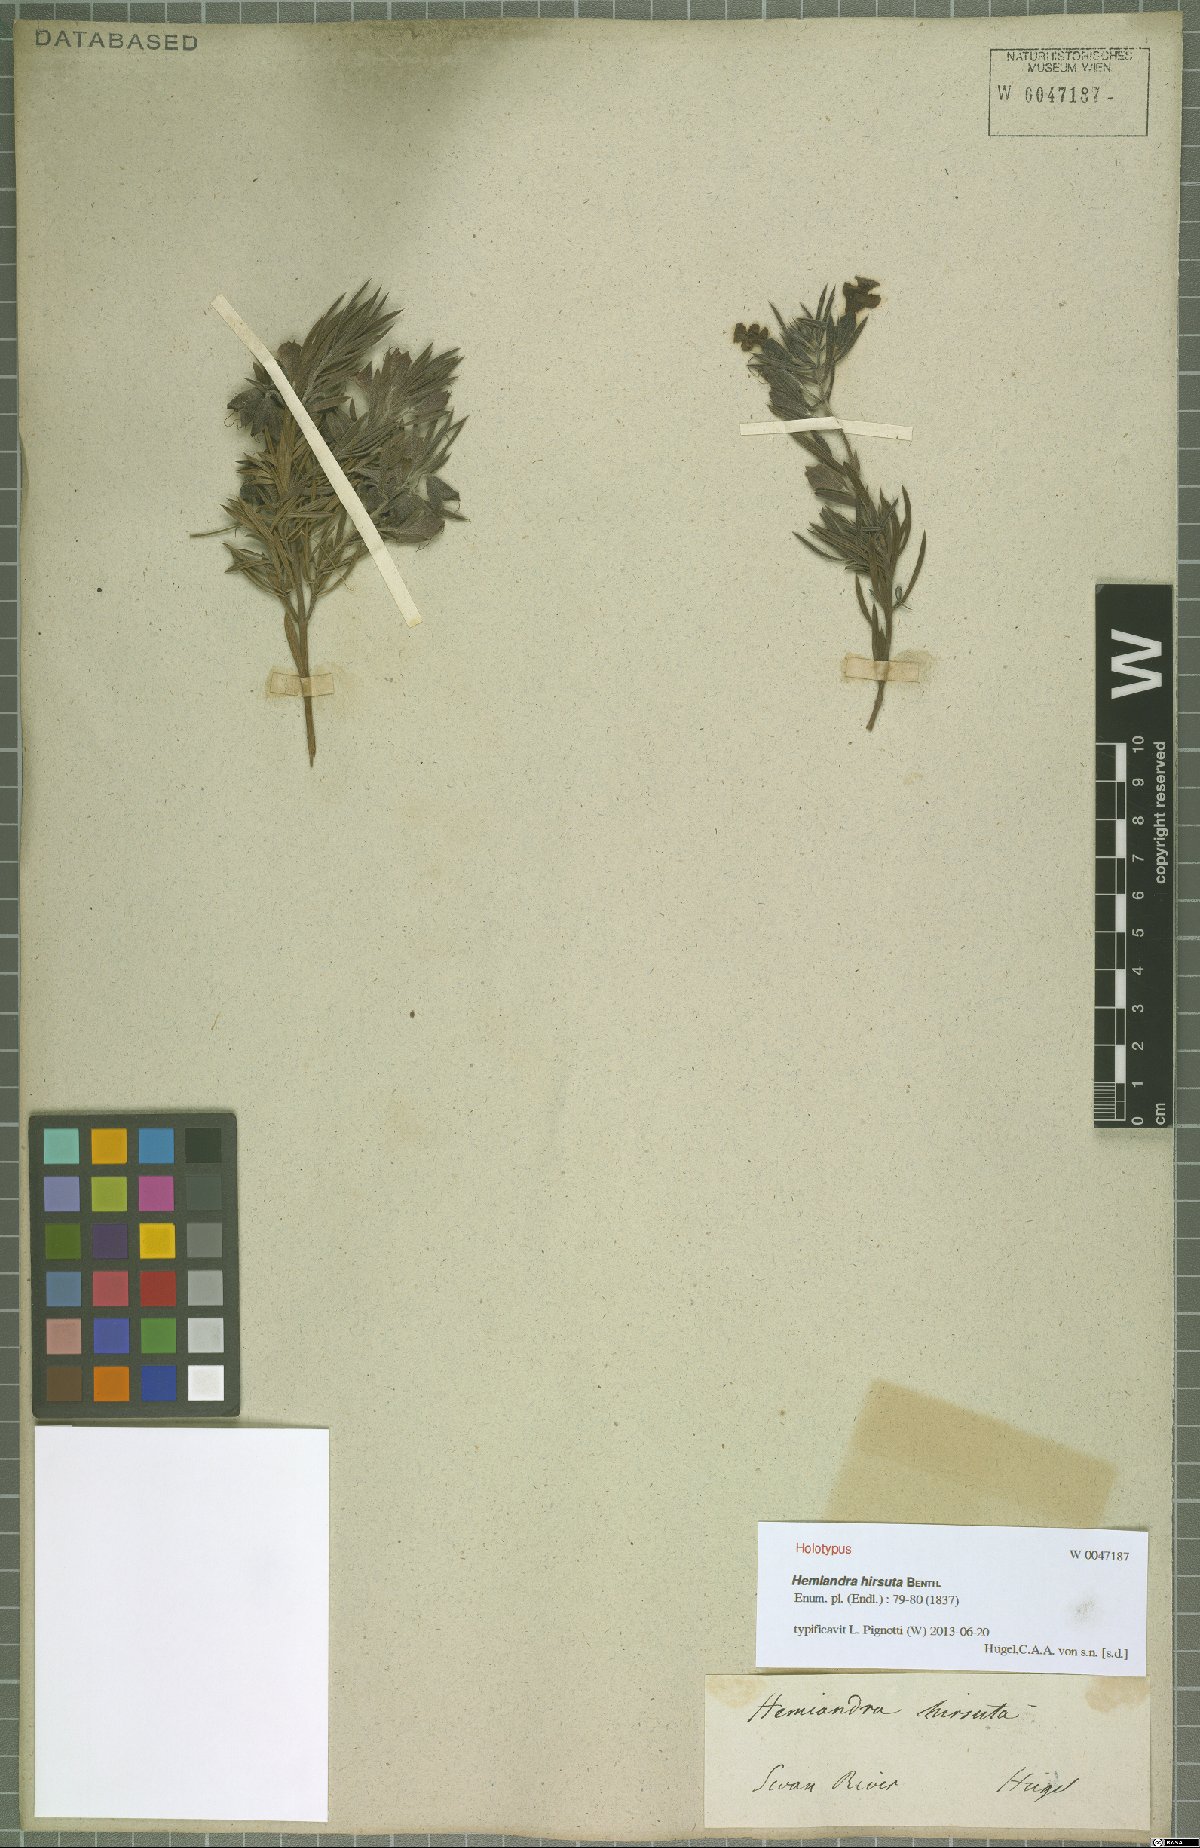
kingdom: Plantae
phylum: Tracheophyta
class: Magnoliopsida
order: Lamiales
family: Lamiaceae
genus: Hemiandra
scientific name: Hemiandra pungens
